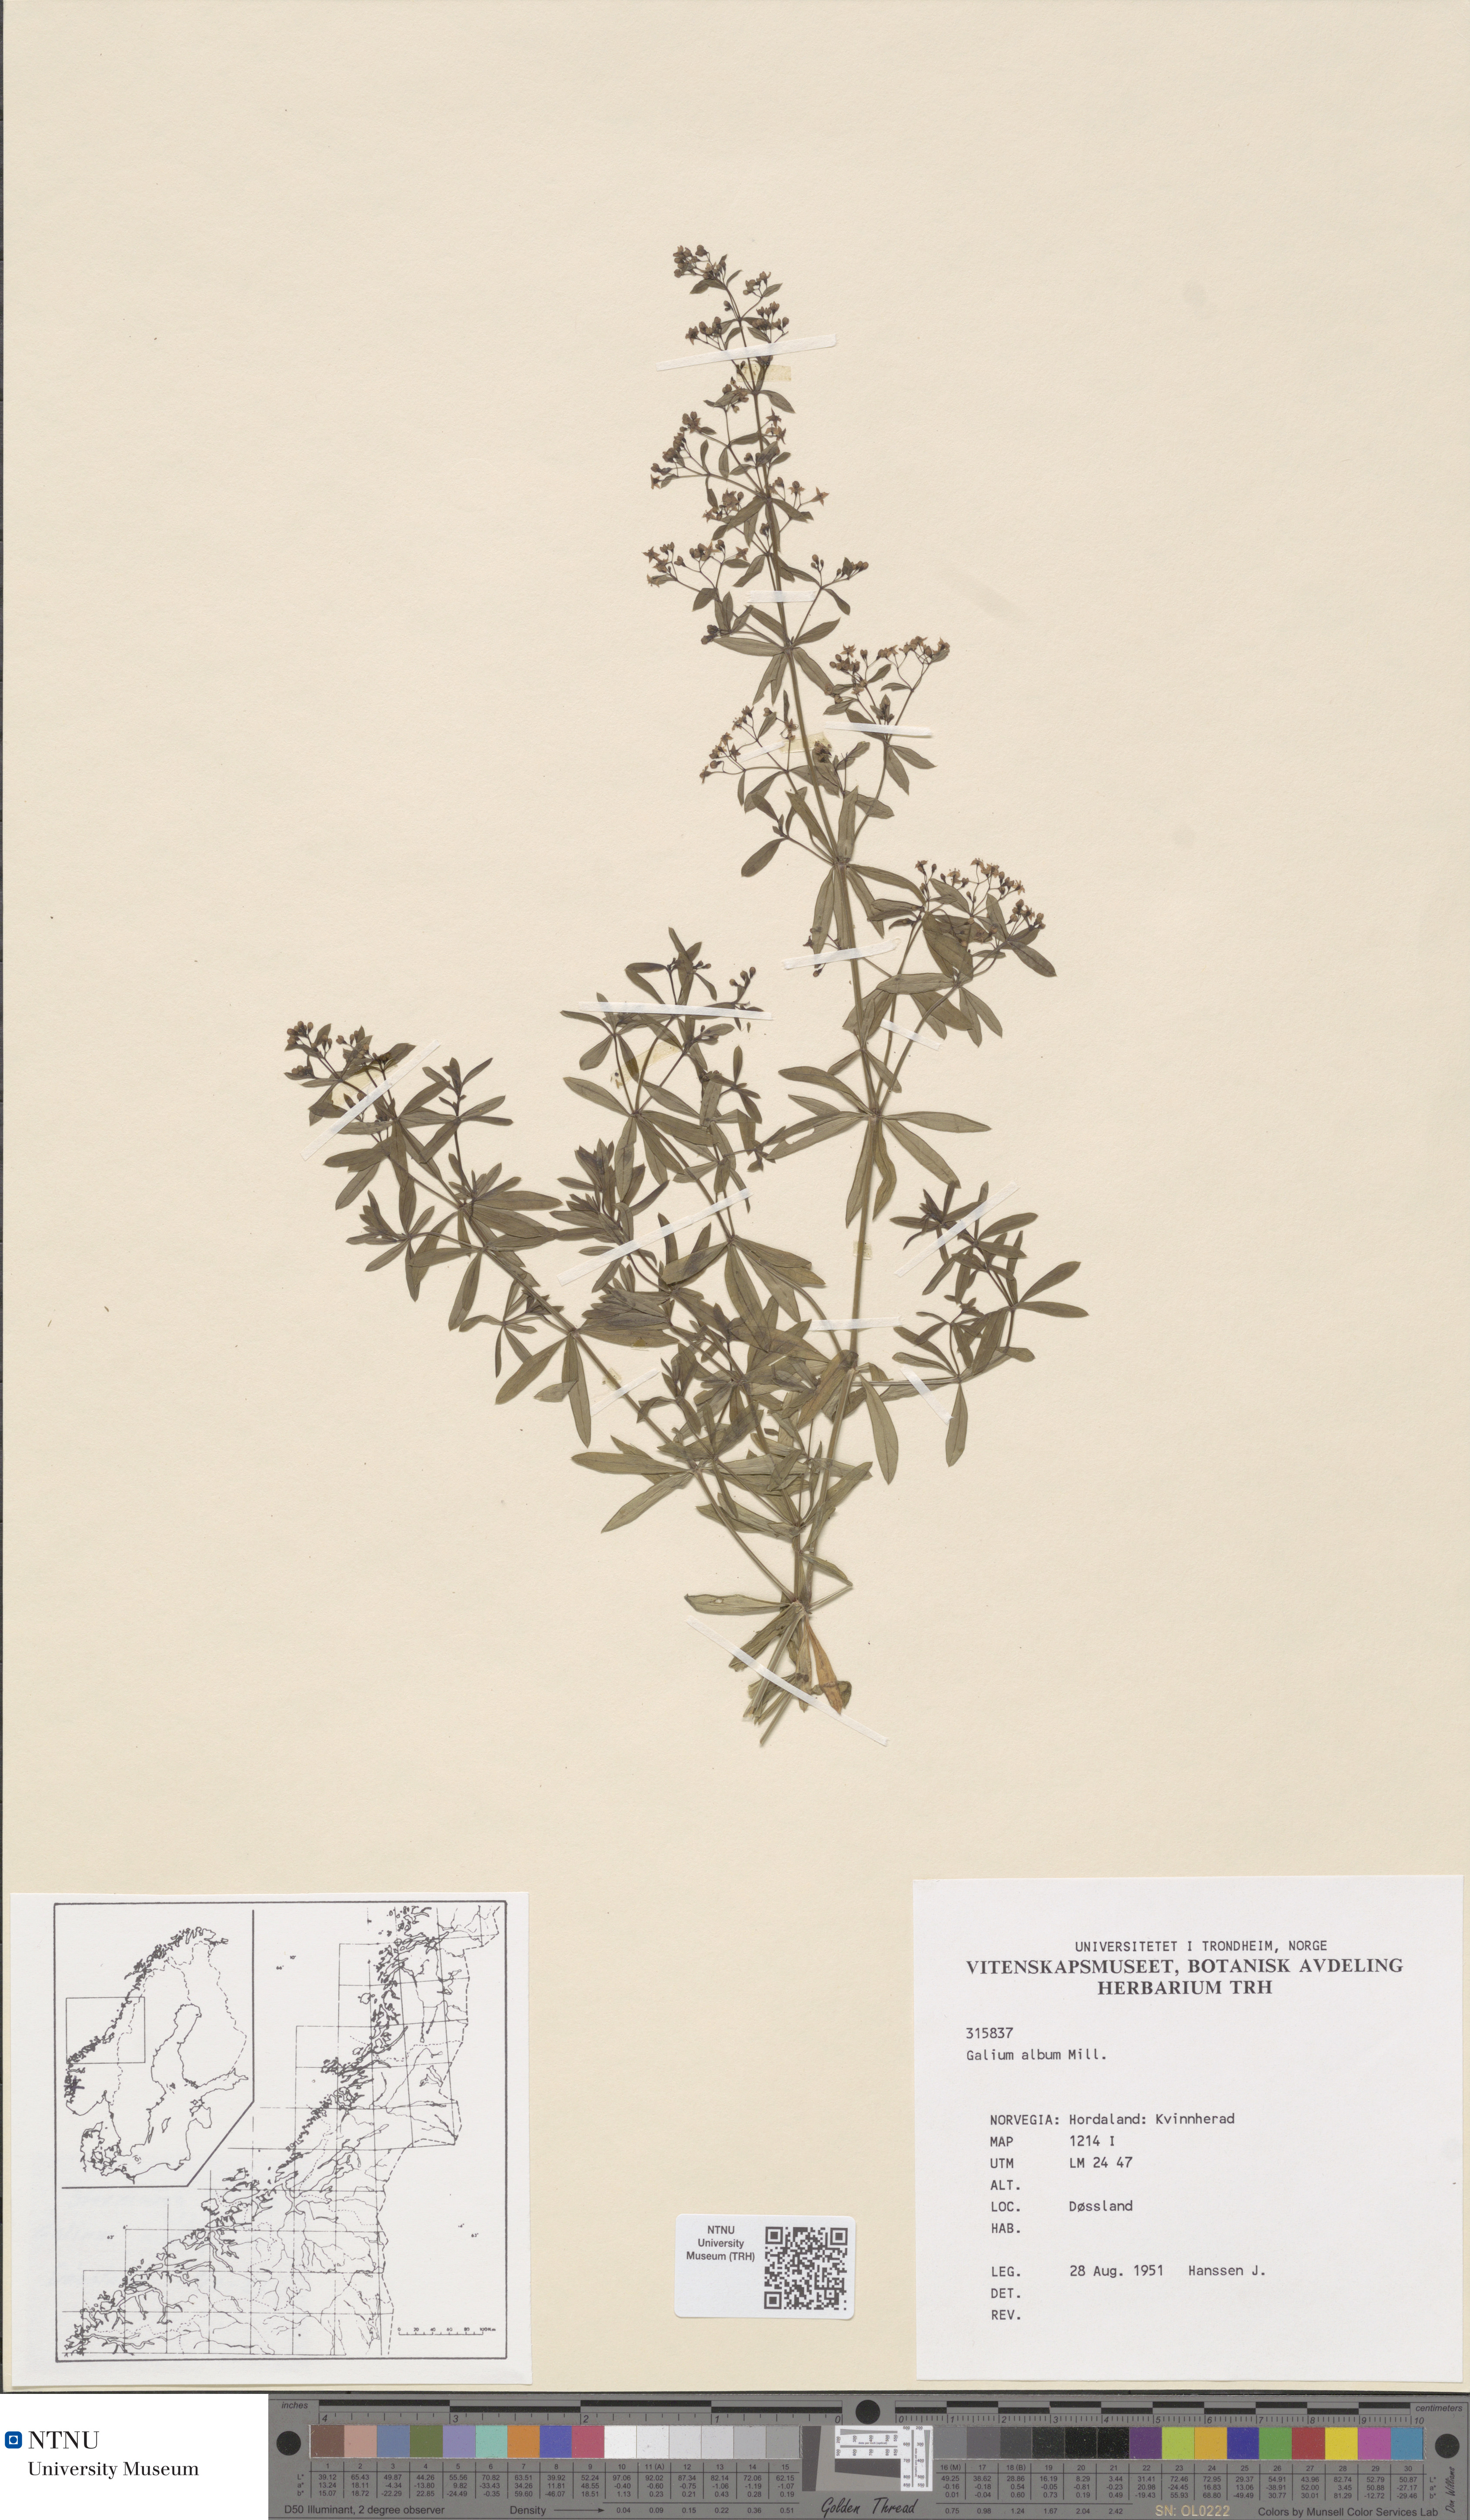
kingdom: Plantae
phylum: Tracheophyta
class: Magnoliopsida
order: Gentianales
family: Rubiaceae
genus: Galium
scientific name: Galium album
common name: White bedstraw
